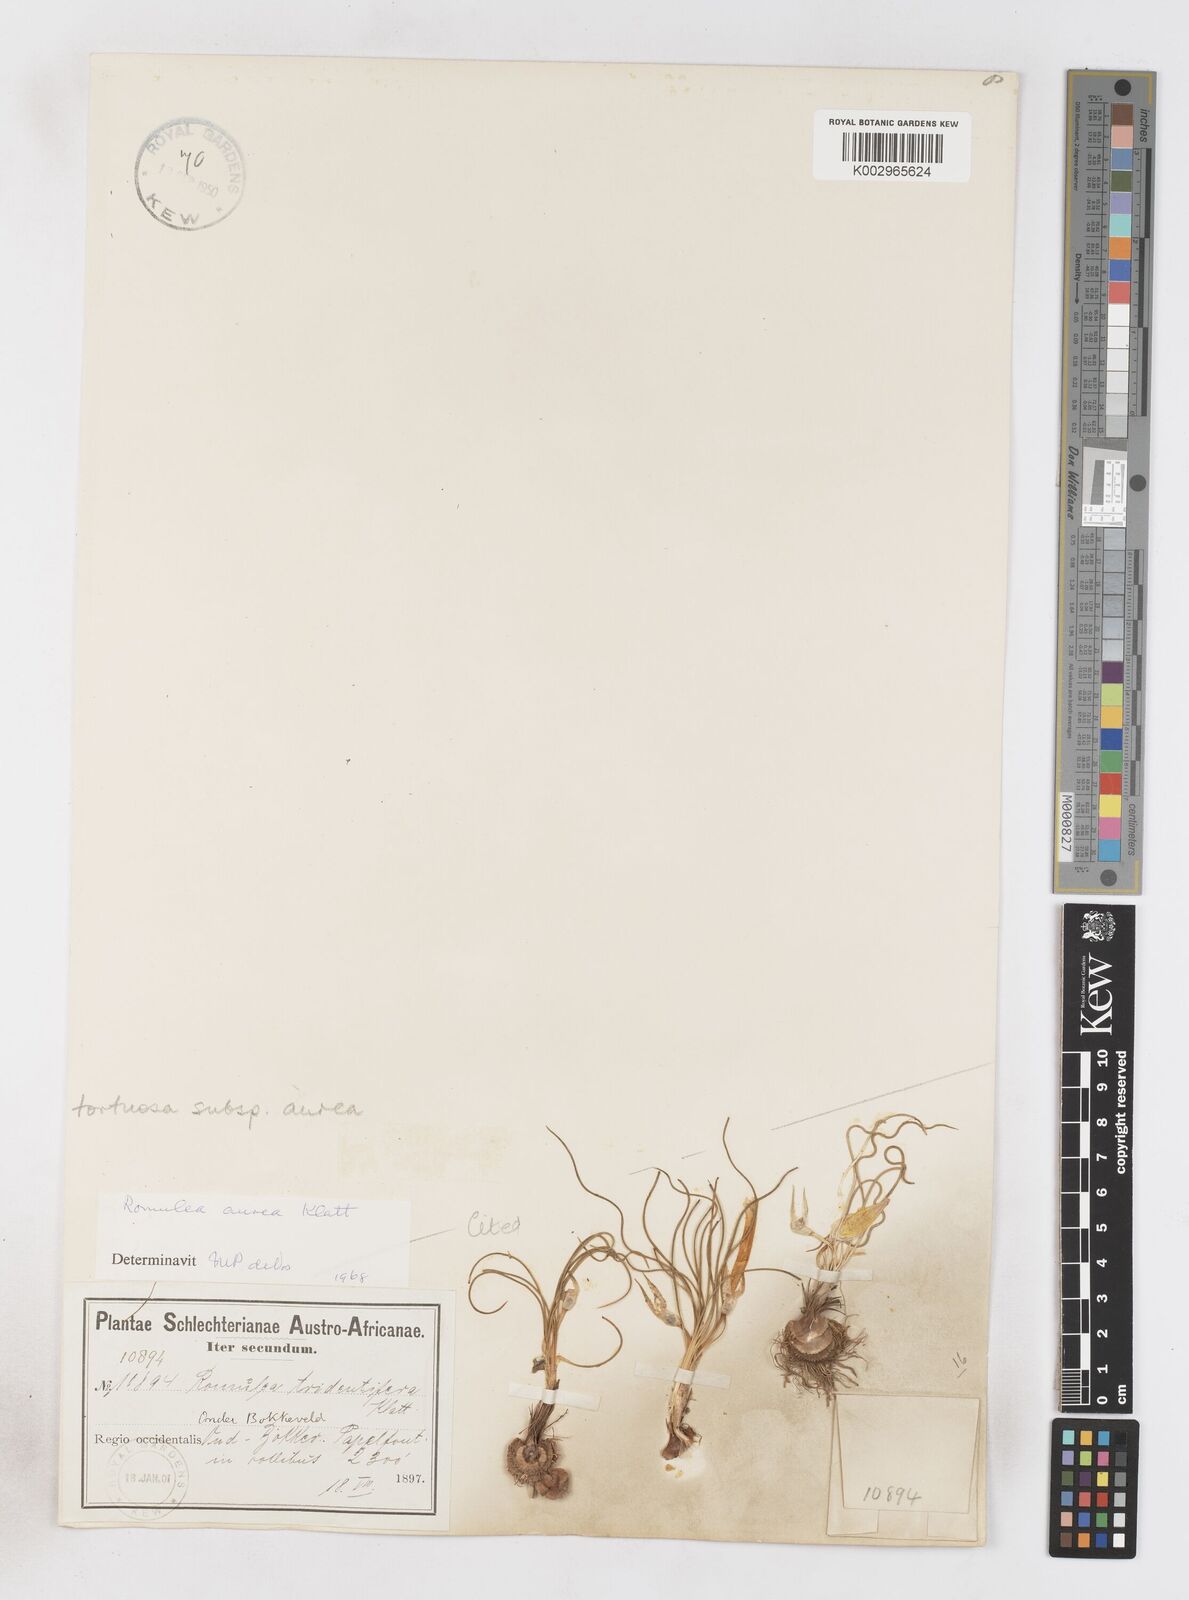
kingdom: Plantae
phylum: Tracheophyta
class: Liliopsida
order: Asparagales
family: Iridaceae
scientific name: Iridaceae
